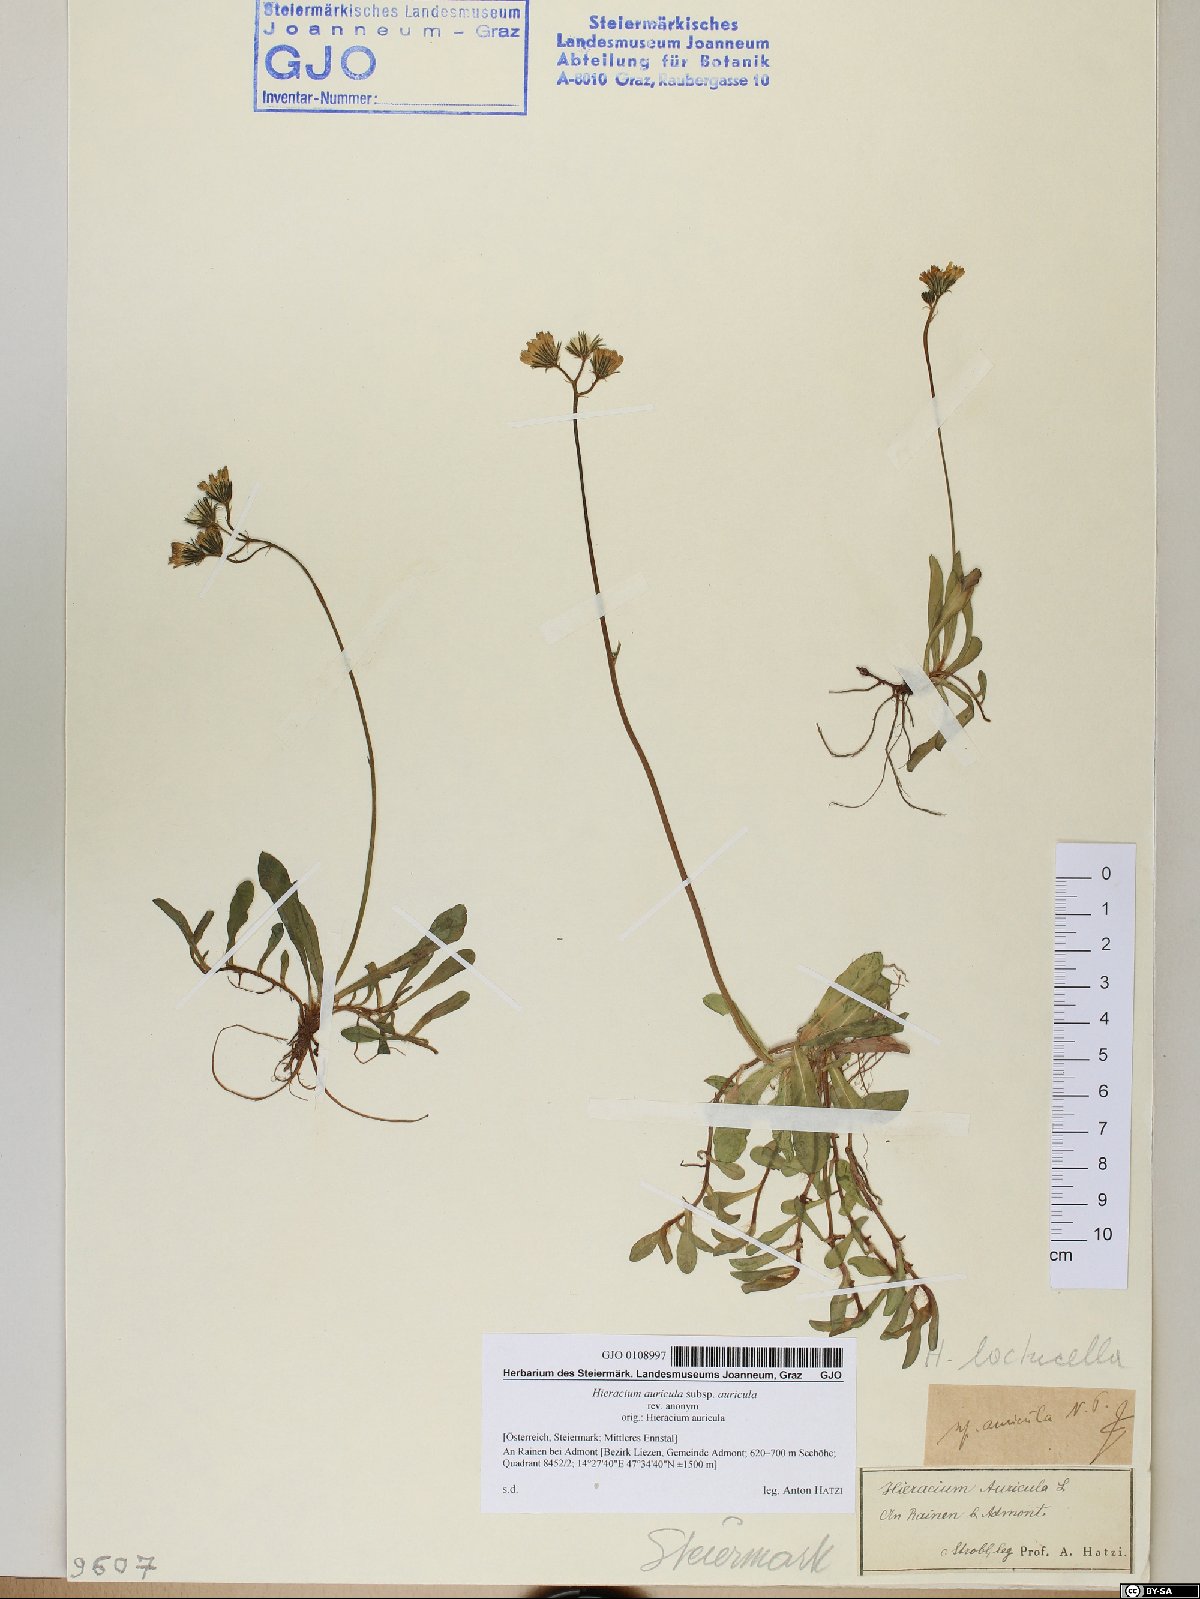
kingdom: Plantae
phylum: Tracheophyta
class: Magnoliopsida
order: Asterales
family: Asteraceae
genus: Hieracium
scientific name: Hieracium auricula
